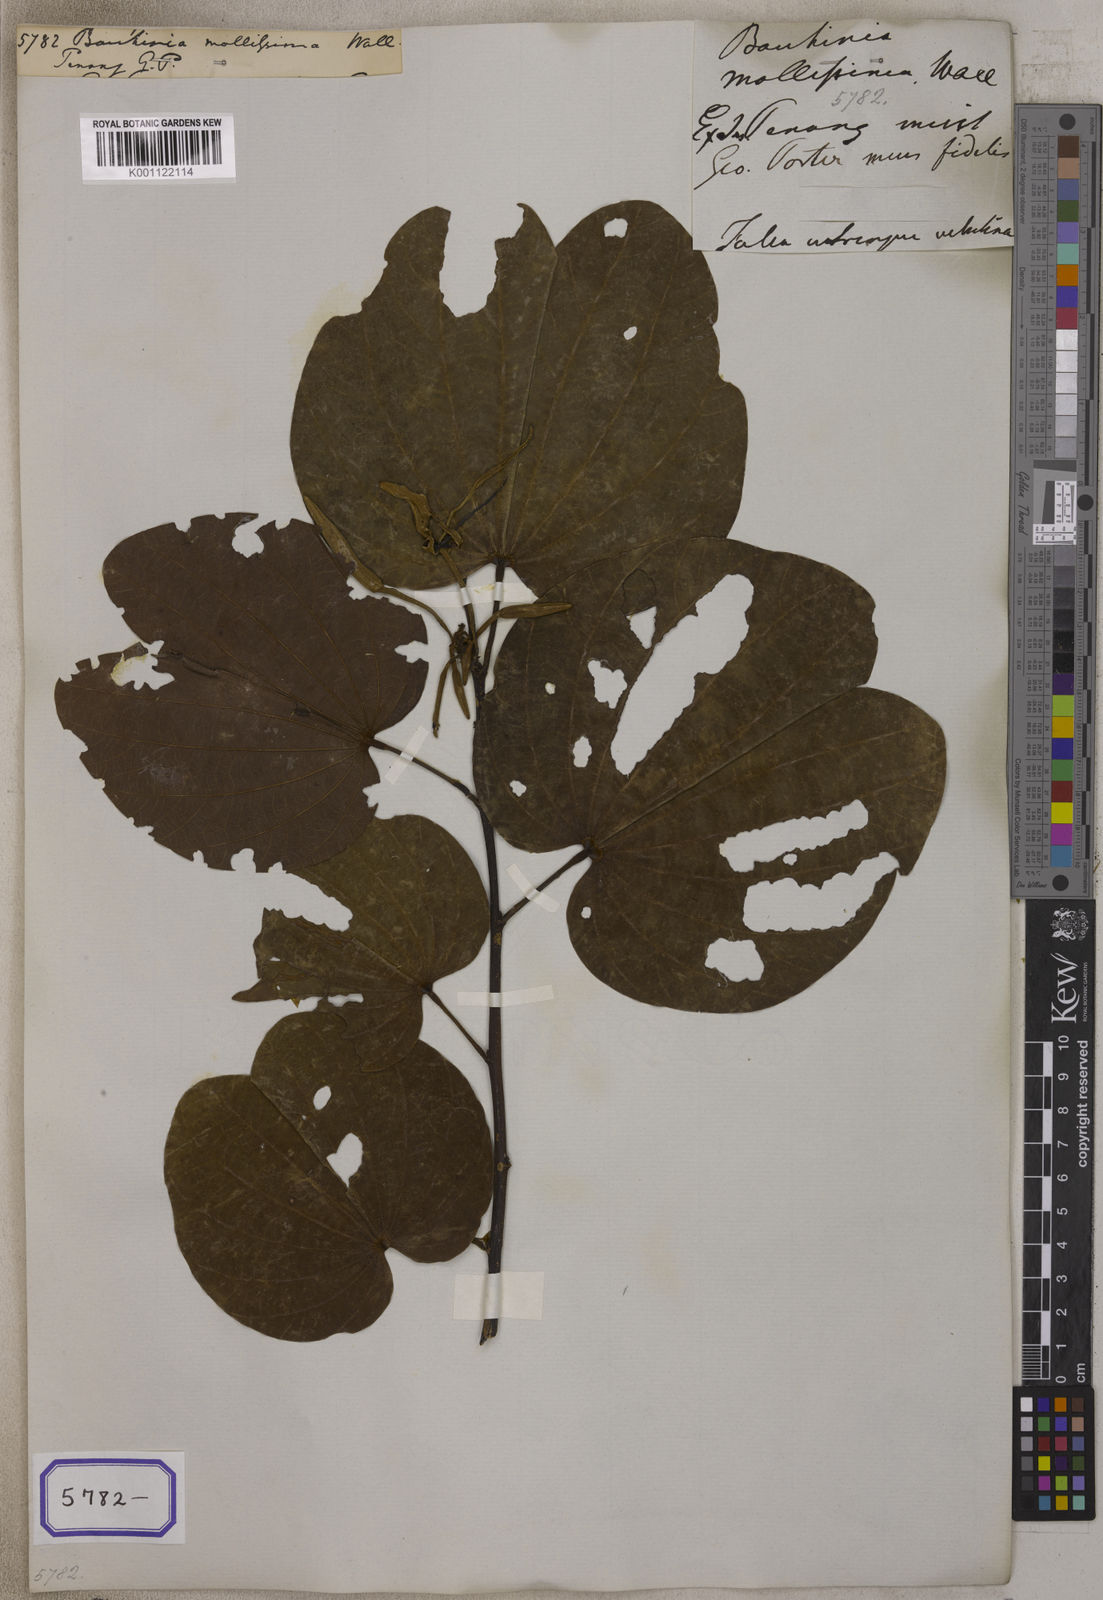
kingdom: Plantae
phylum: Tracheophyta
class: Magnoliopsida
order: Fabales
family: Fabaceae
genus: Bauhinia
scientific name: Bauhinia
